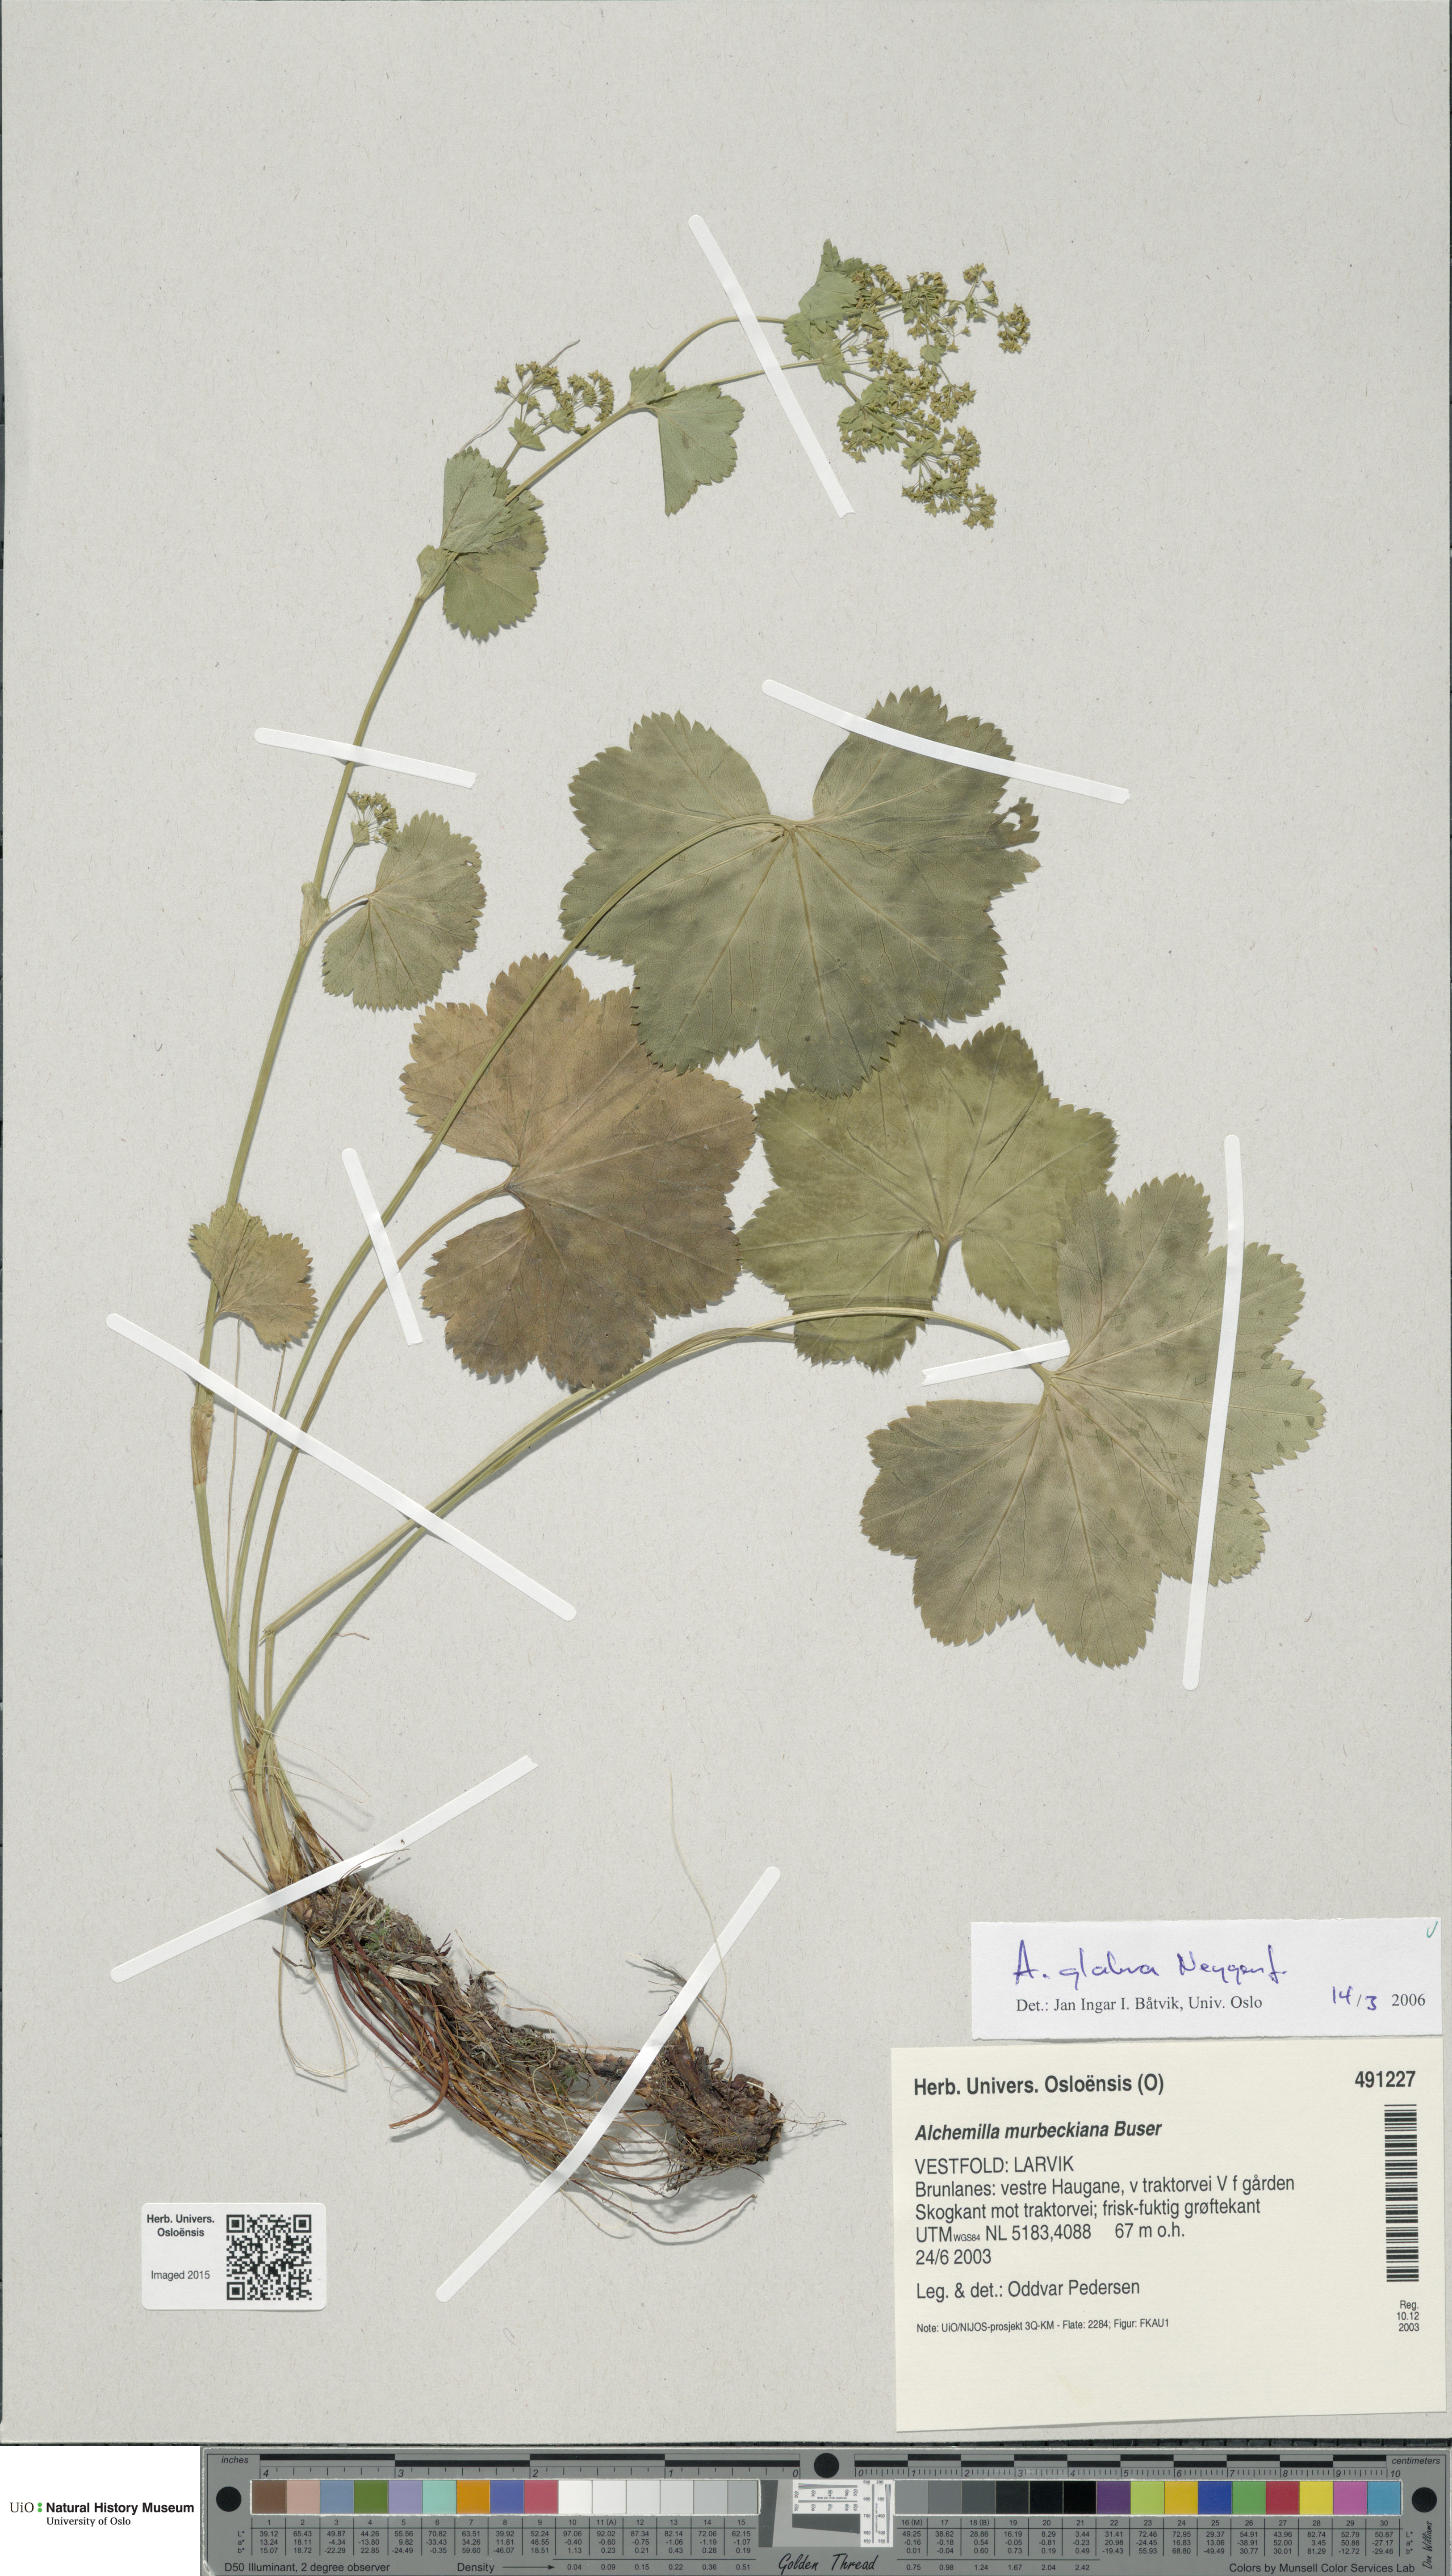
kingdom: Plantae
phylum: Tracheophyta
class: Magnoliopsida
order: Rosales
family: Rosaceae
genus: Alchemilla
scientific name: Alchemilla glabra
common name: Smooth lady's-mantle
